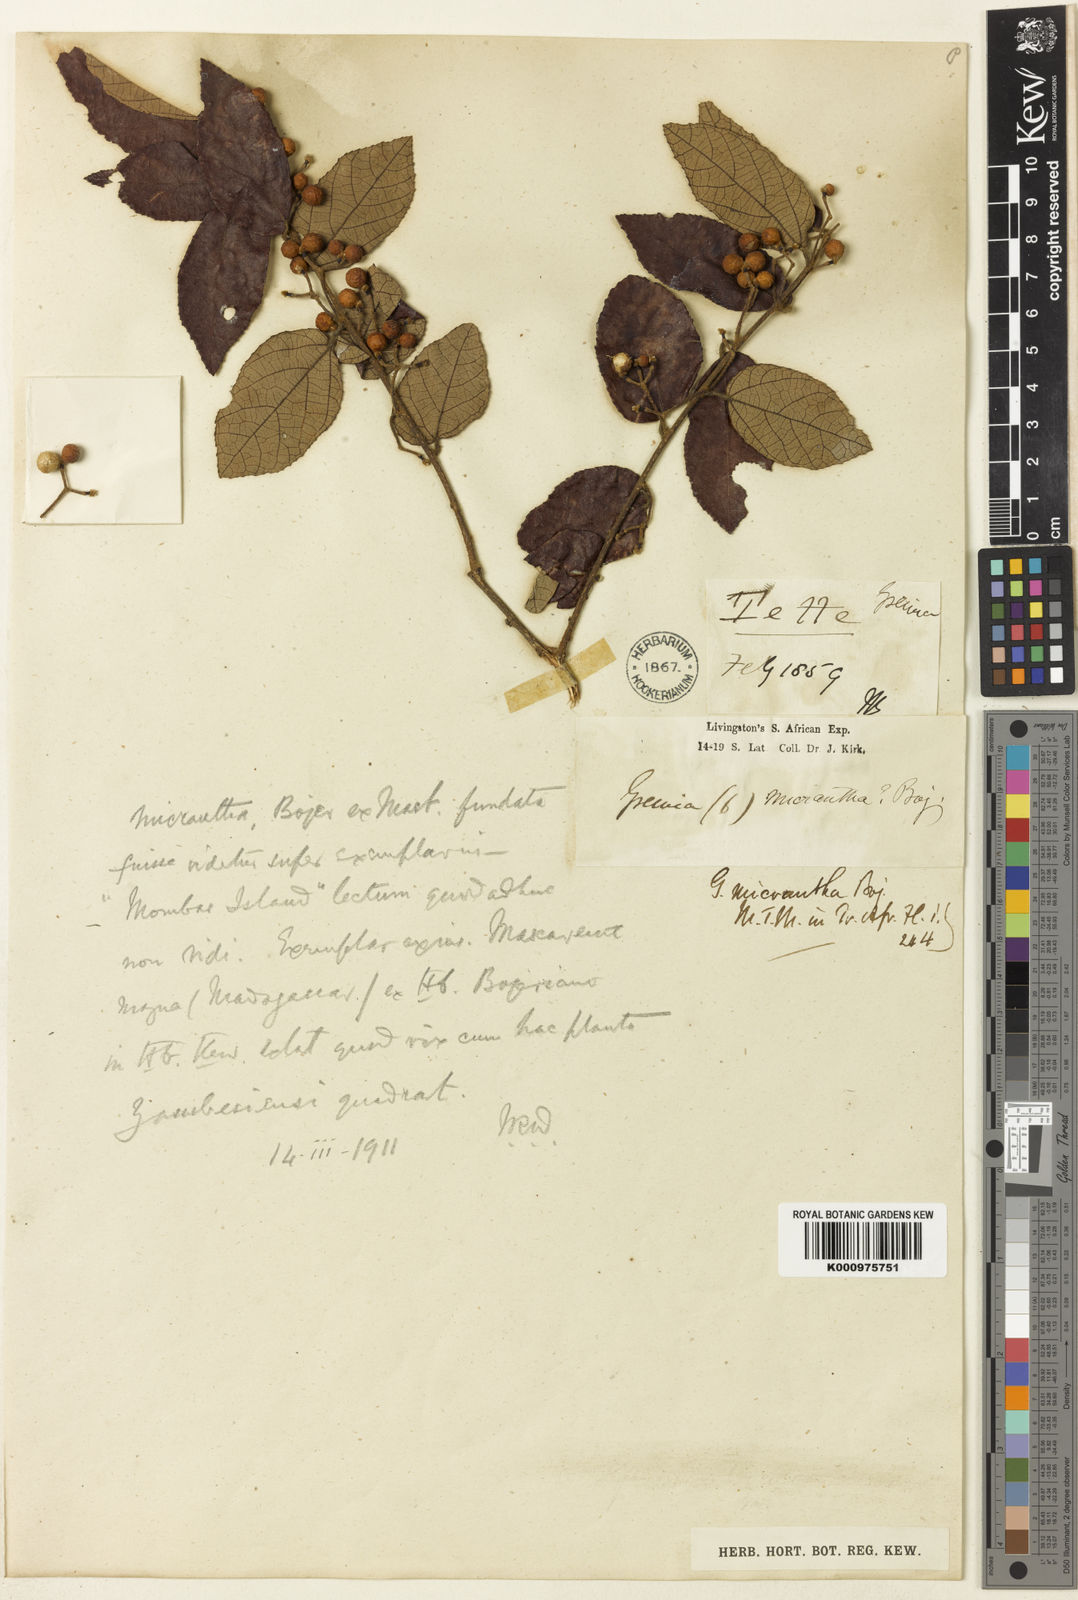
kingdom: Plantae
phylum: Tracheophyta
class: Magnoliopsida
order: Malvales
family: Malvaceae
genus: Grewia
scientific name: Grewia
